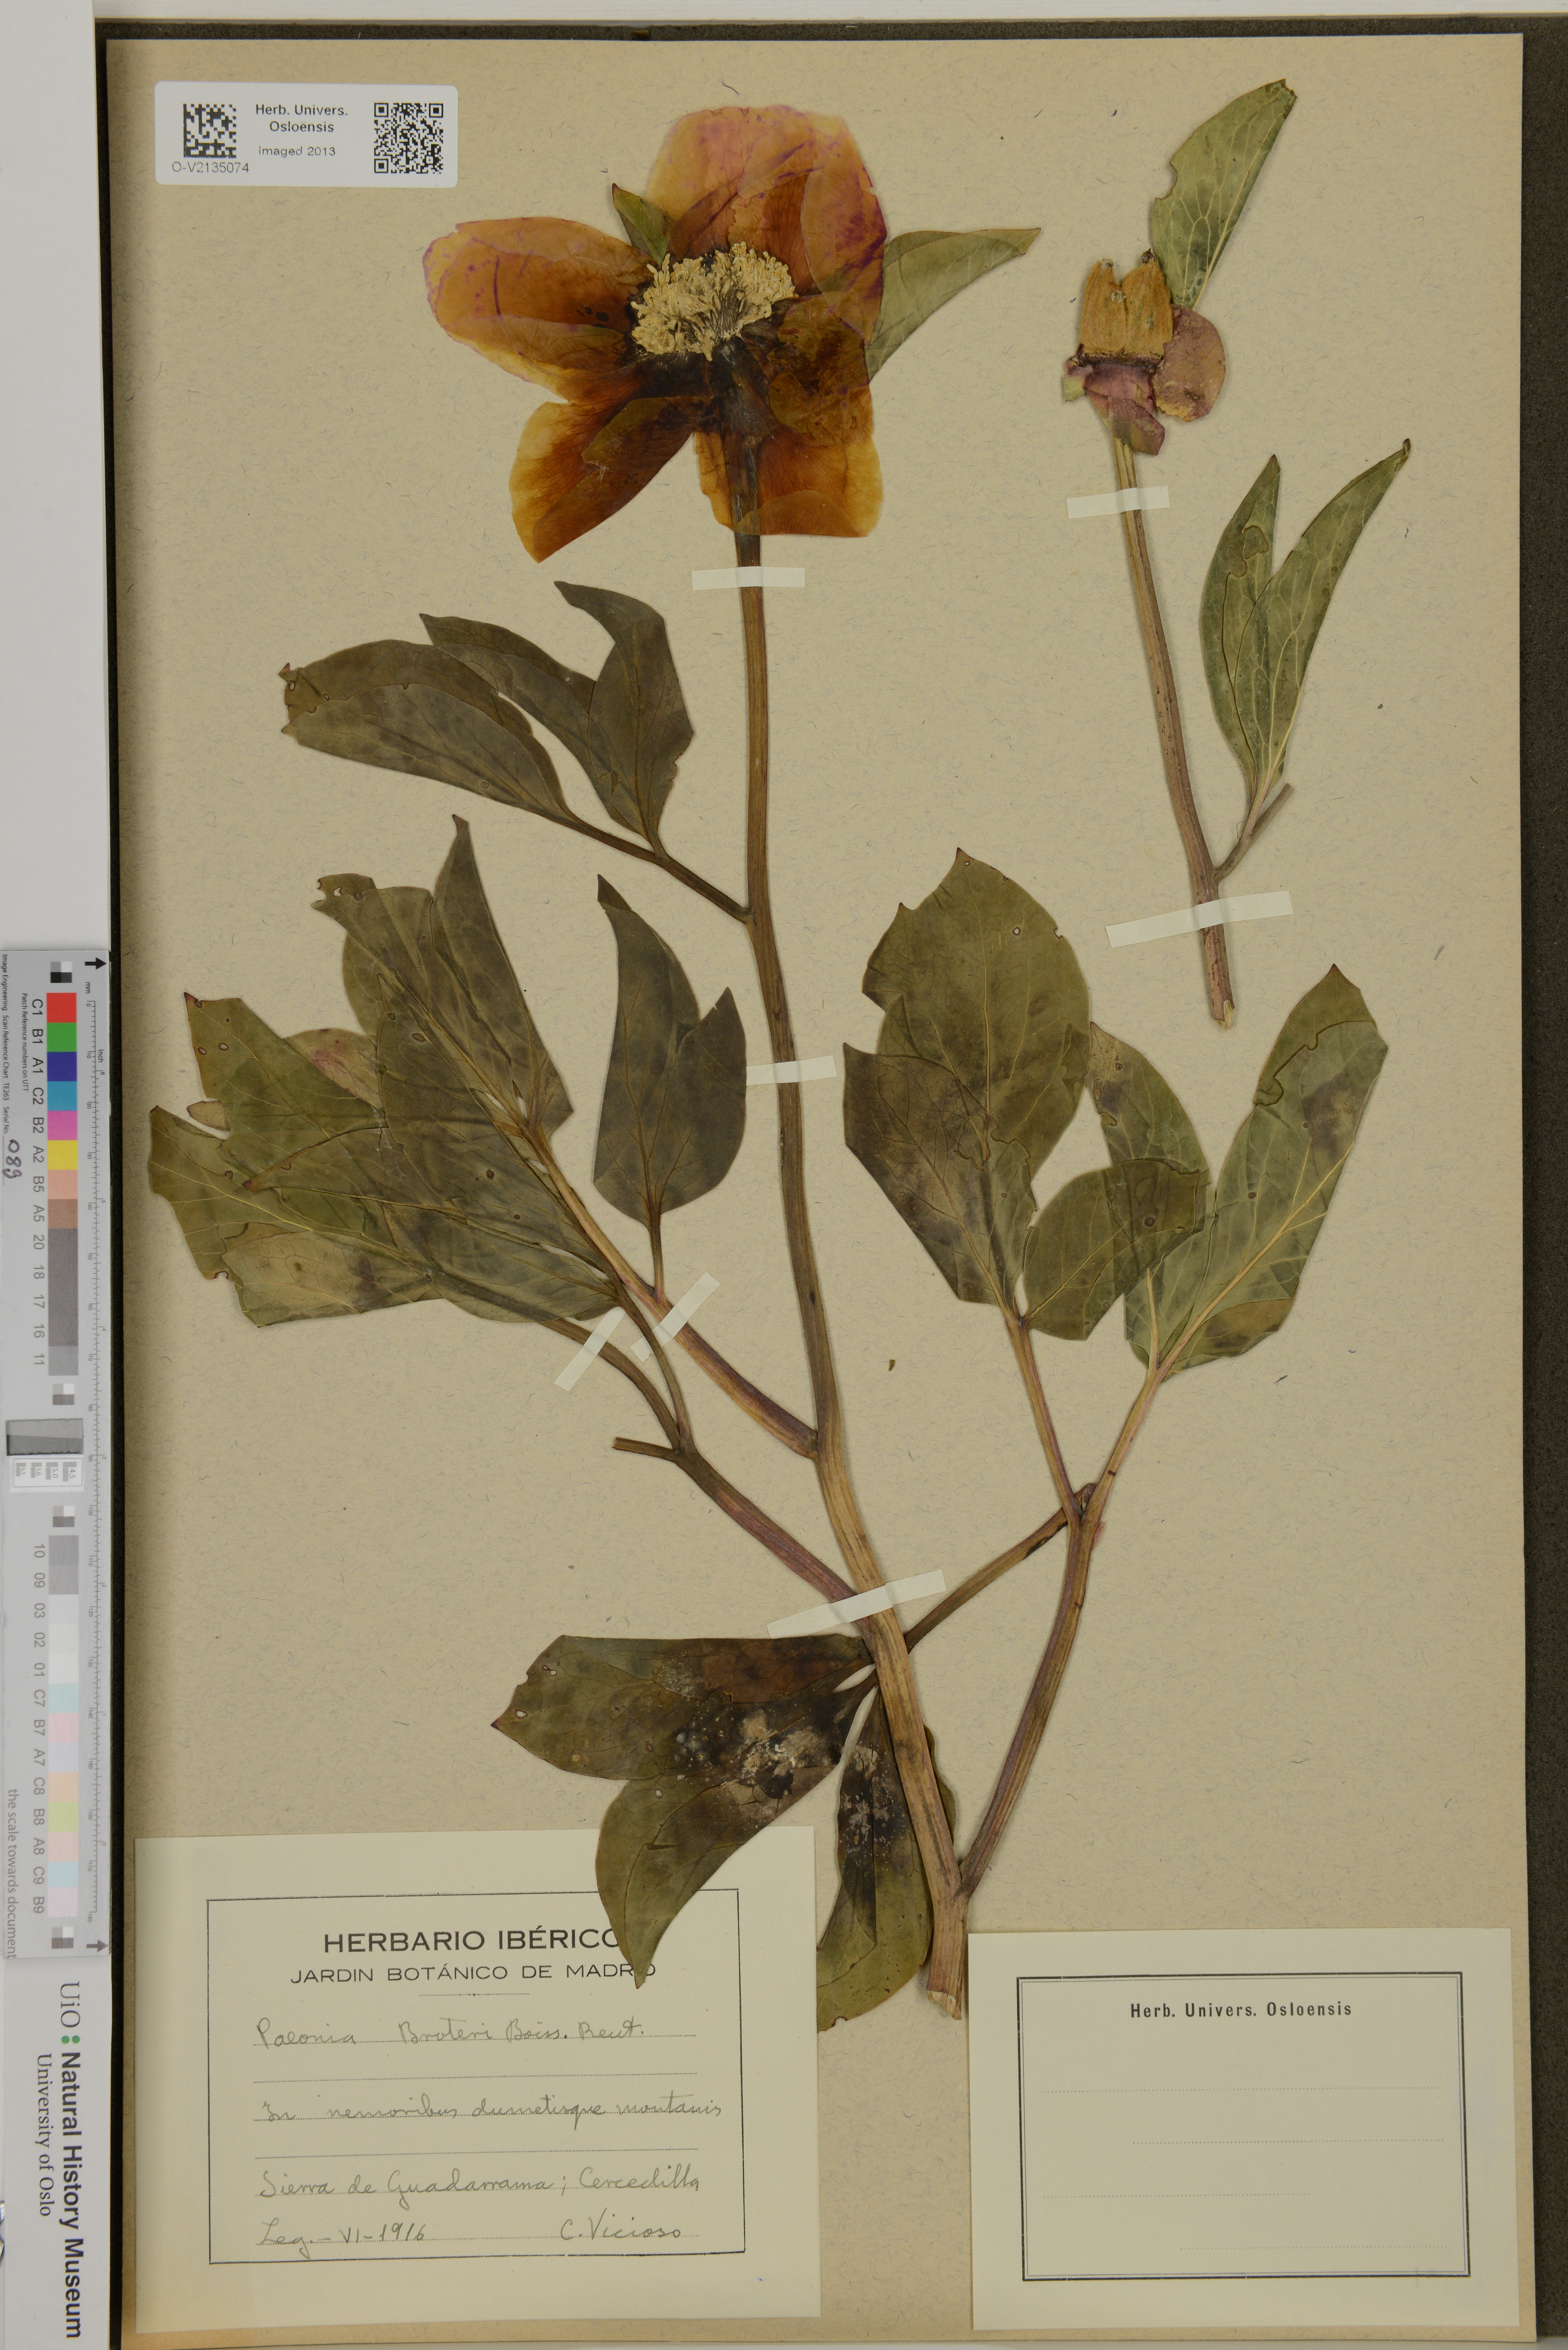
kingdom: Plantae
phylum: Tracheophyta
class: Magnoliopsida
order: Saxifragales
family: Paeoniaceae
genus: Paeonia
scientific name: Paeonia broteroi
